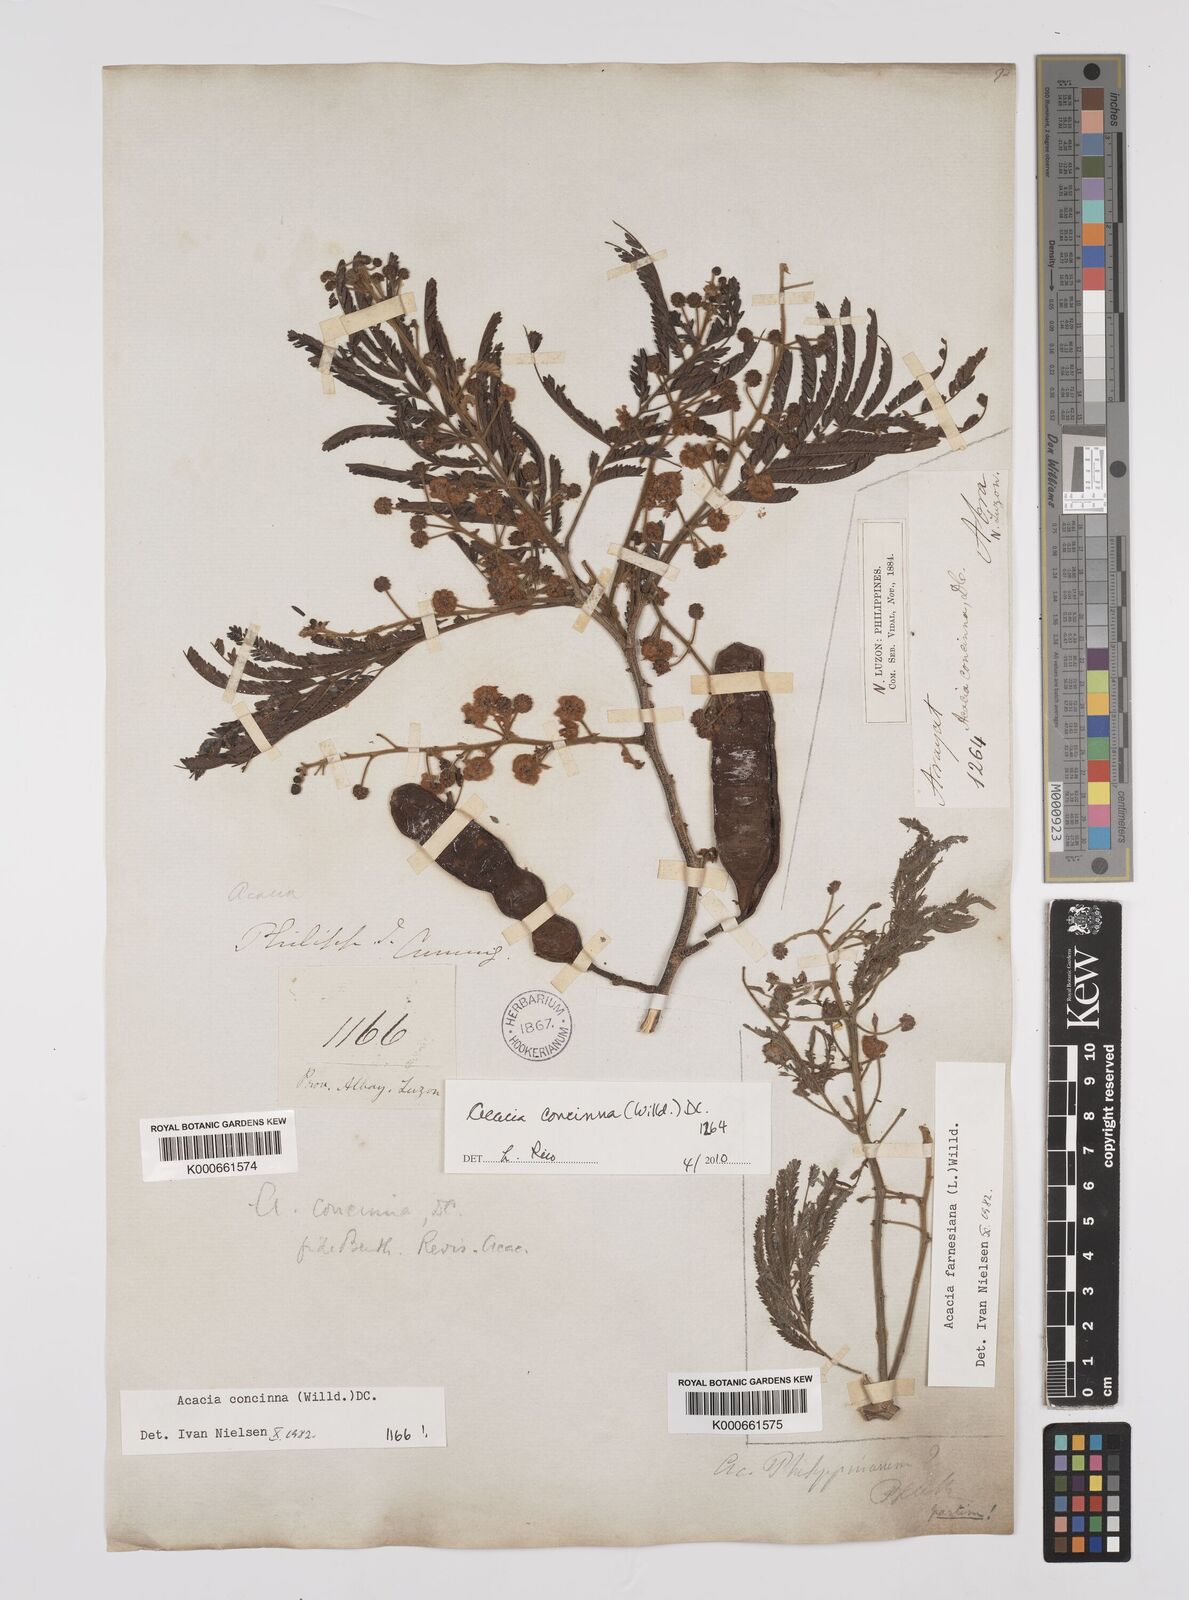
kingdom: Plantae
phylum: Tracheophyta
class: Magnoliopsida
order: Fabales
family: Fabaceae
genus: Senegalia
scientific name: Senegalia rugata
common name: Soap-pod
